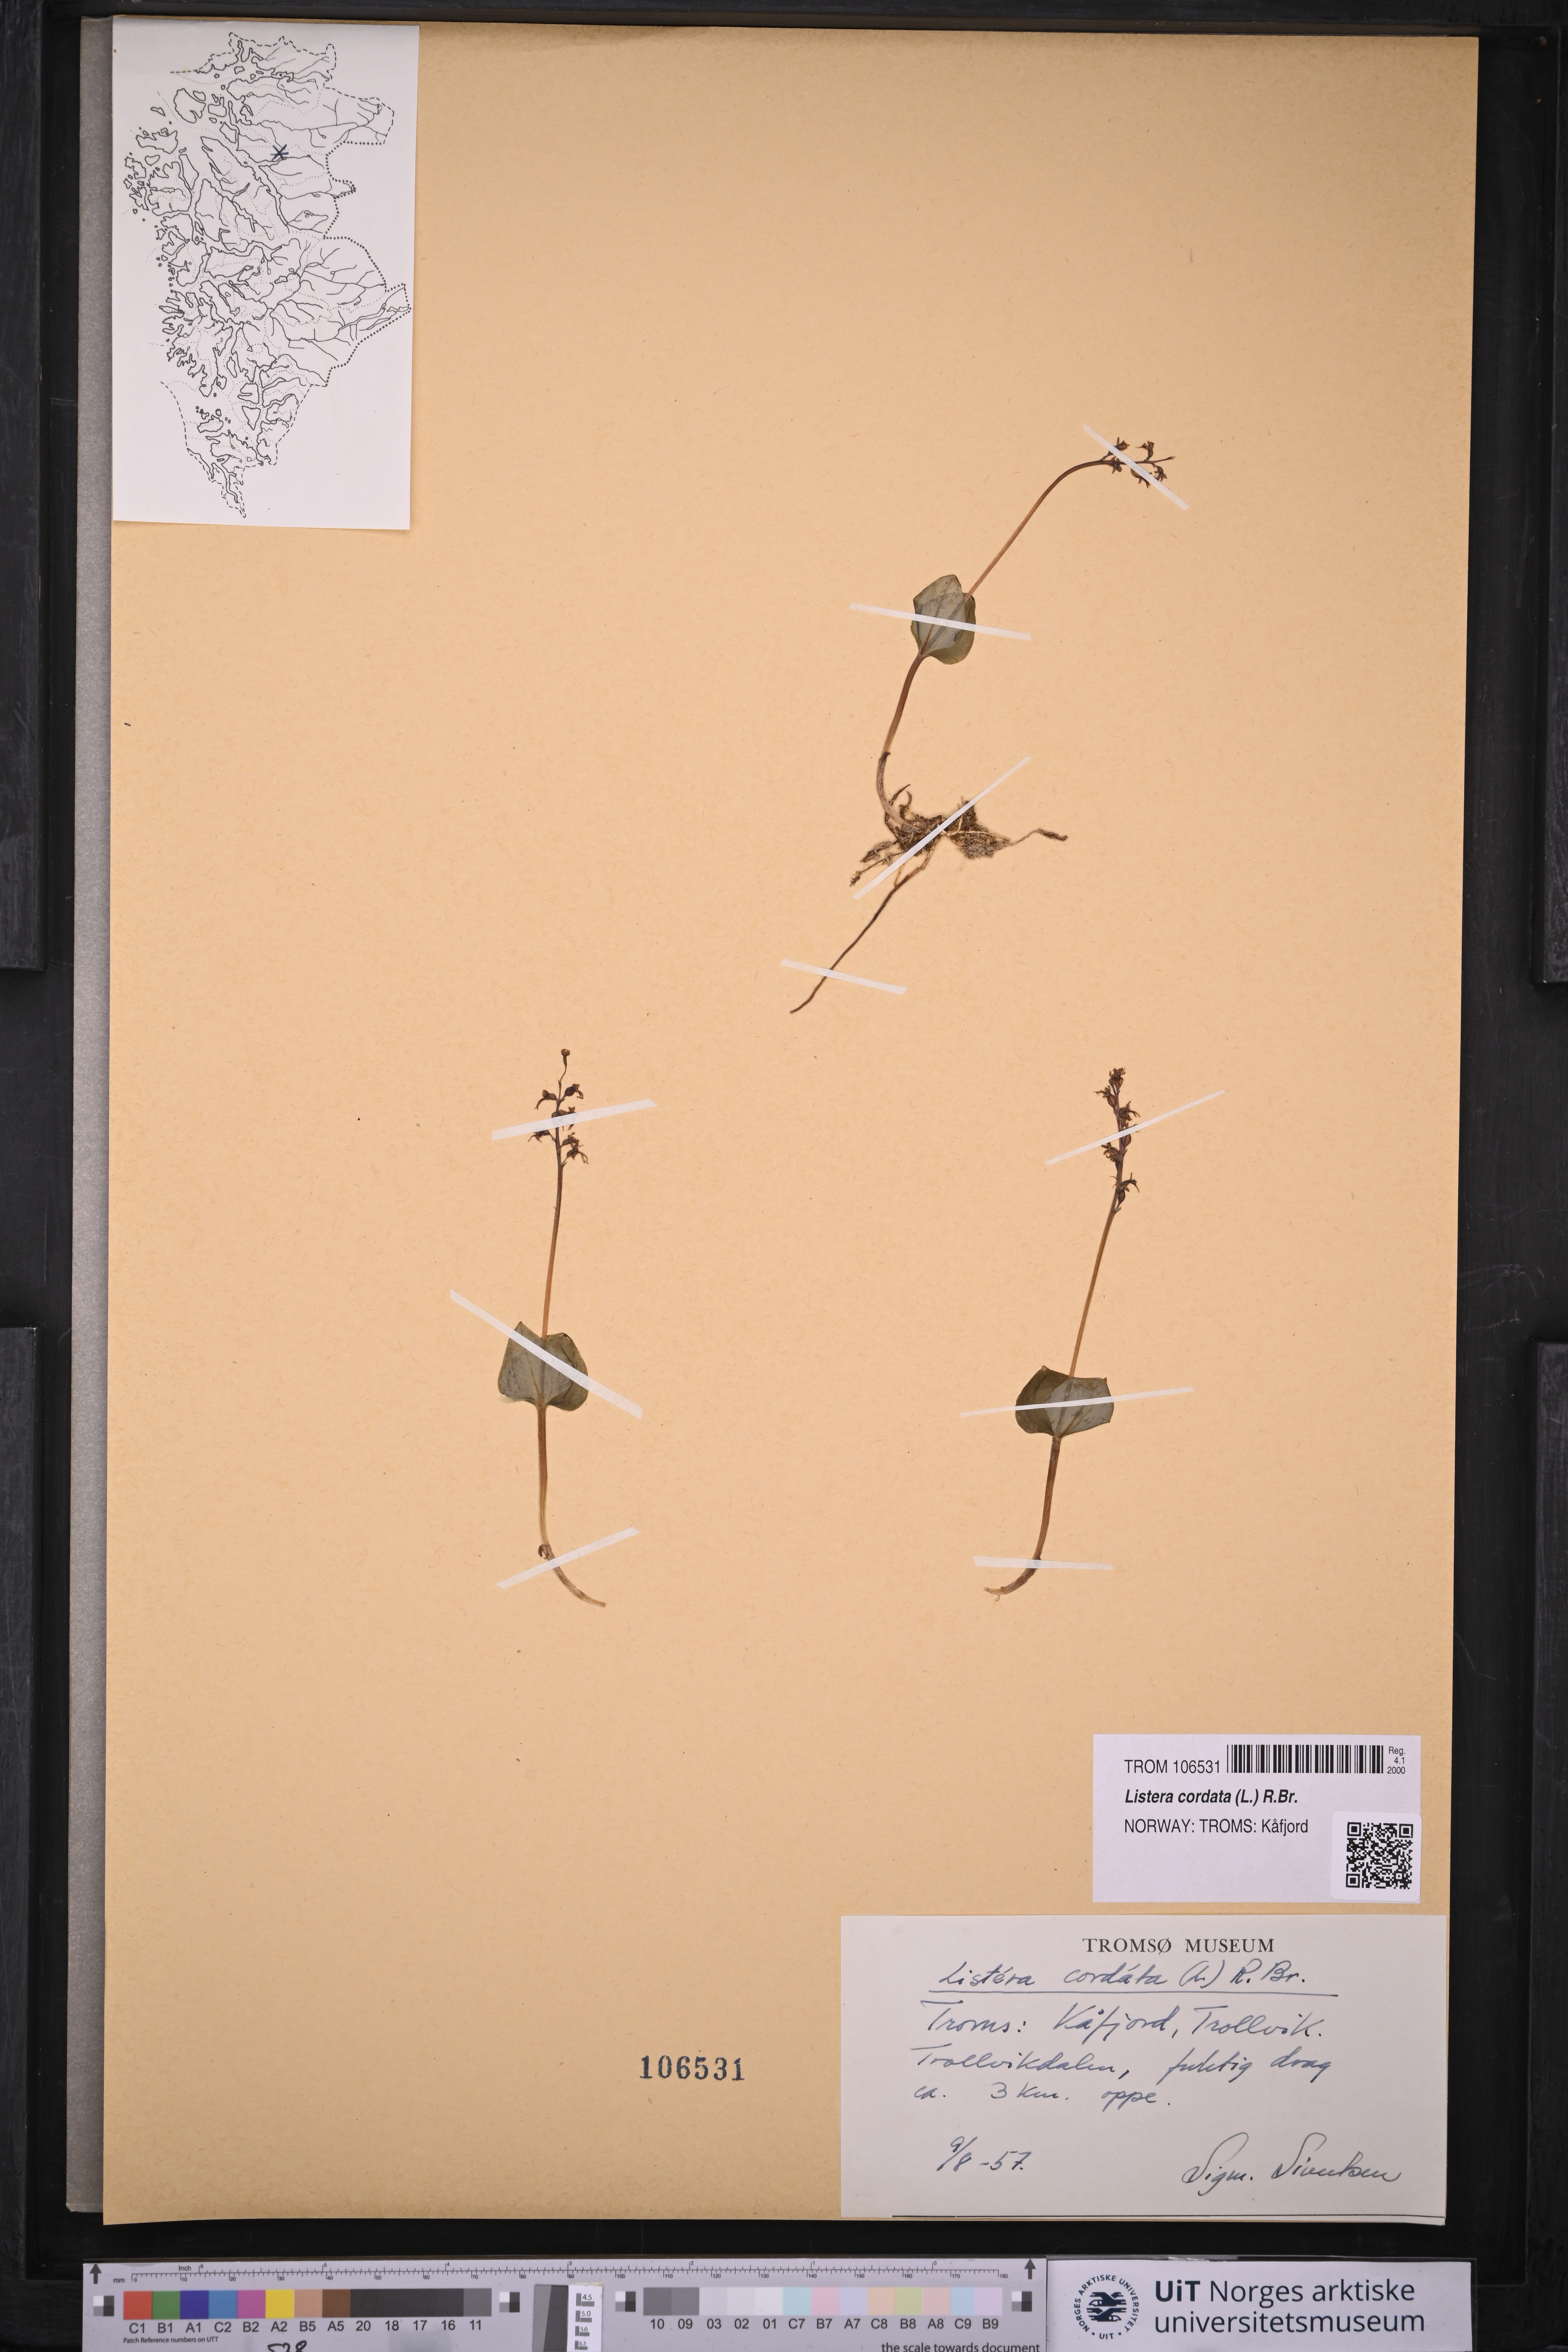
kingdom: Plantae
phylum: Tracheophyta
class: Liliopsida
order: Asparagales
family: Orchidaceae
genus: Neottia
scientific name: Neottia cordata
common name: Lesser twayblade
